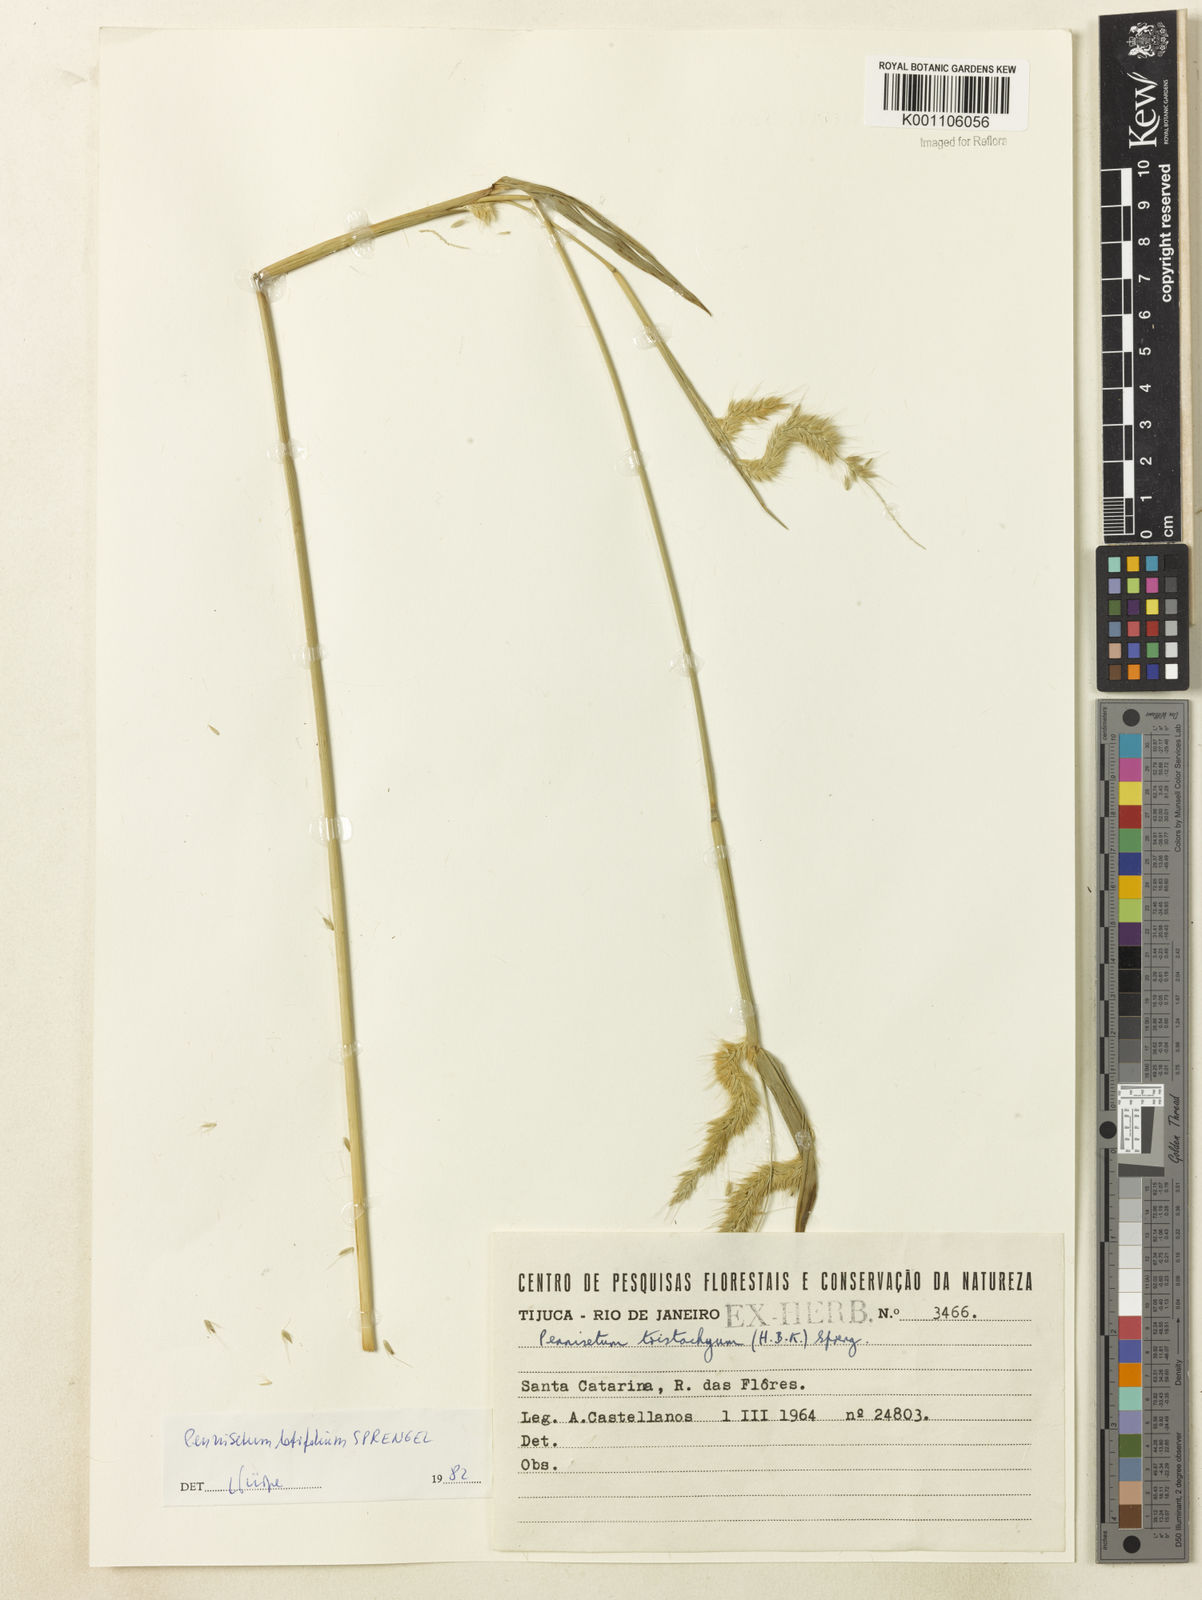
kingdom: Plantae
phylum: Tracheophyta
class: Liliopsida
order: Poales
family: Poaceae
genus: Cenchrus
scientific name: Cenchrus latifolius
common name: Sandbur
